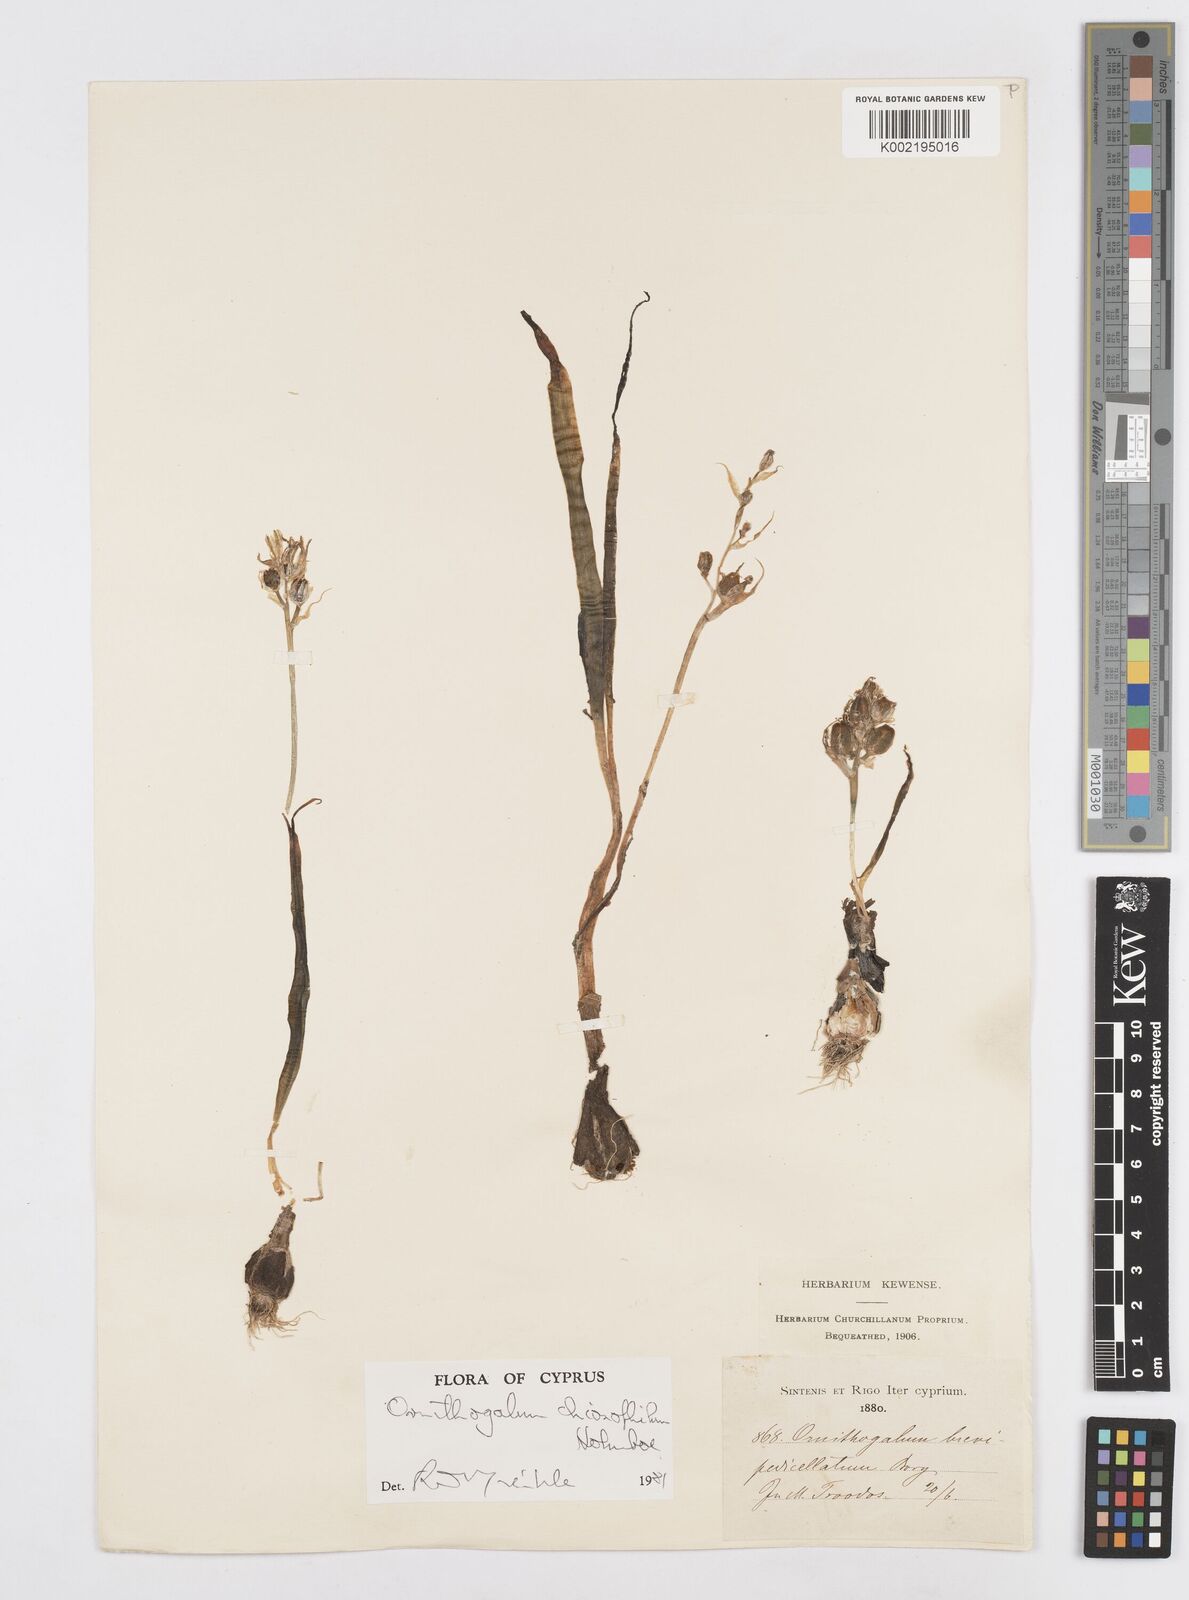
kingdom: Plantae
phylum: Tracheophyta
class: Liliopsida
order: Asparagales
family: Asparagaceae
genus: Ornithogalum
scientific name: Ornithogalum chionophilum
